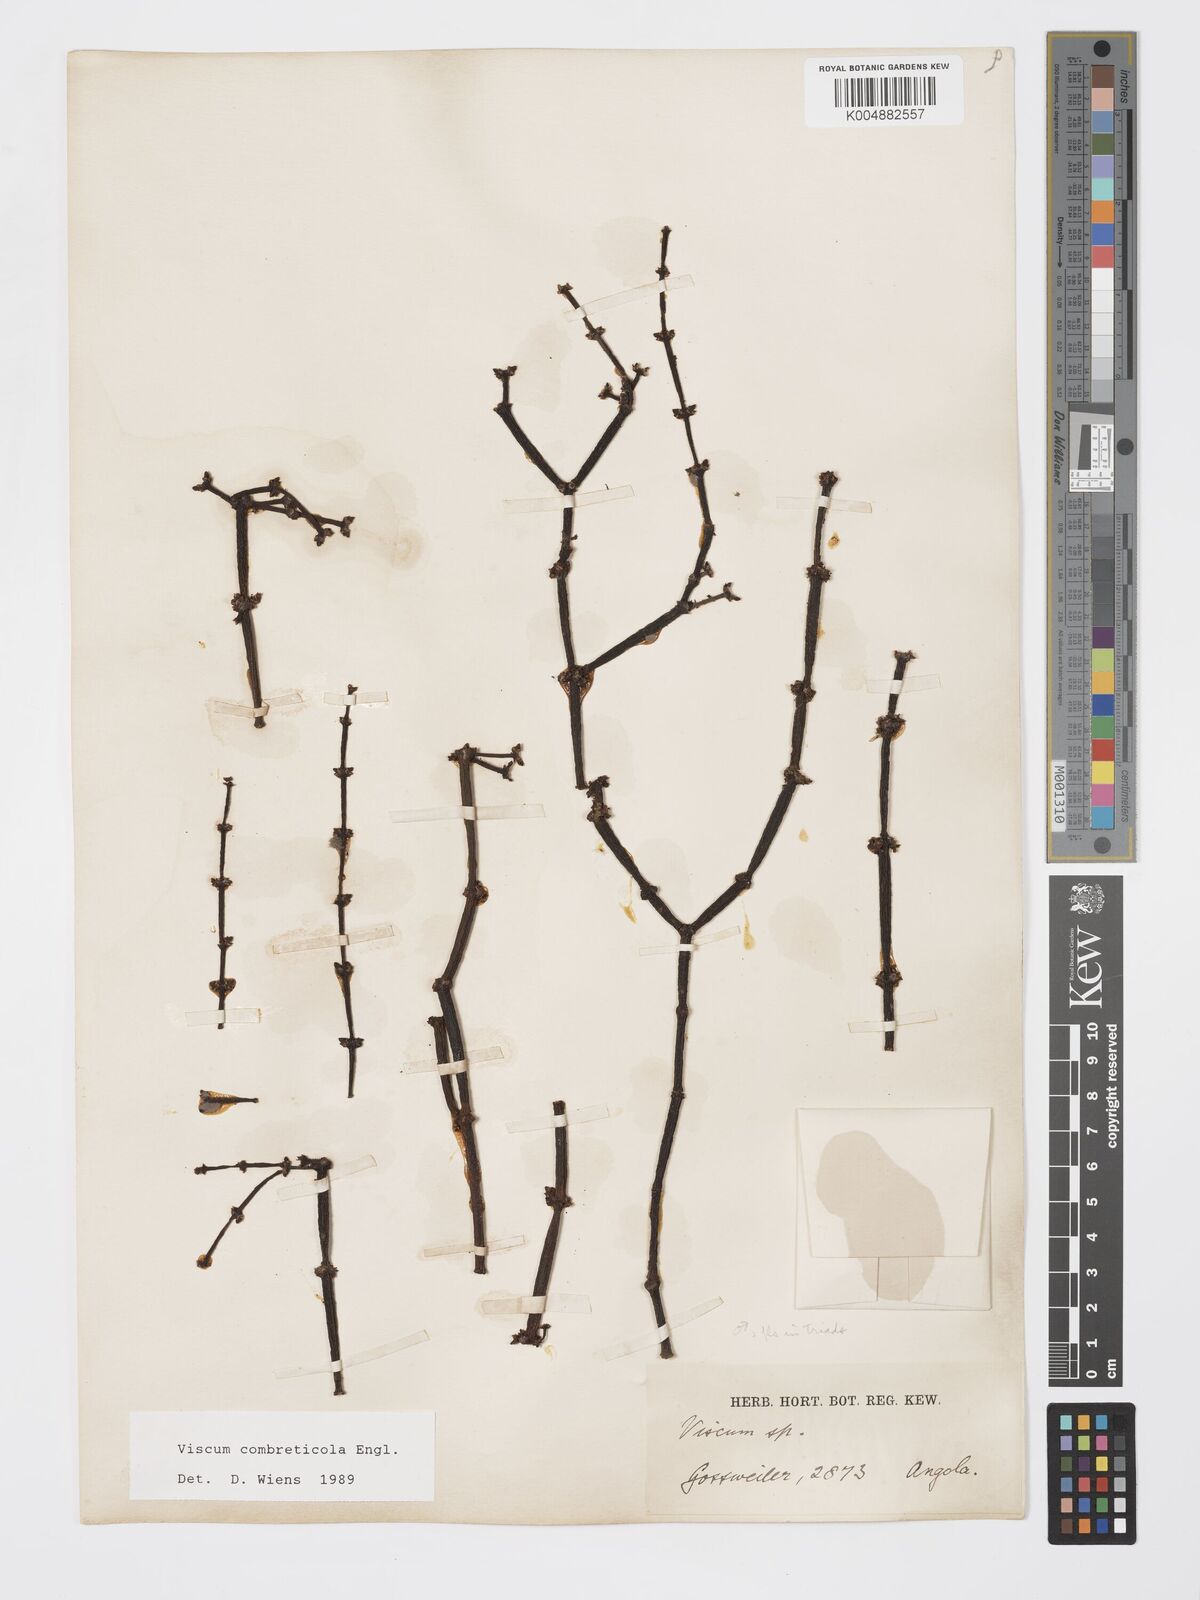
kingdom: Plantae
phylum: Tracheophyta
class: Magnoliopsida
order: Santalales
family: Viscaceae
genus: Viscum
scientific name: Viscum combreticola
